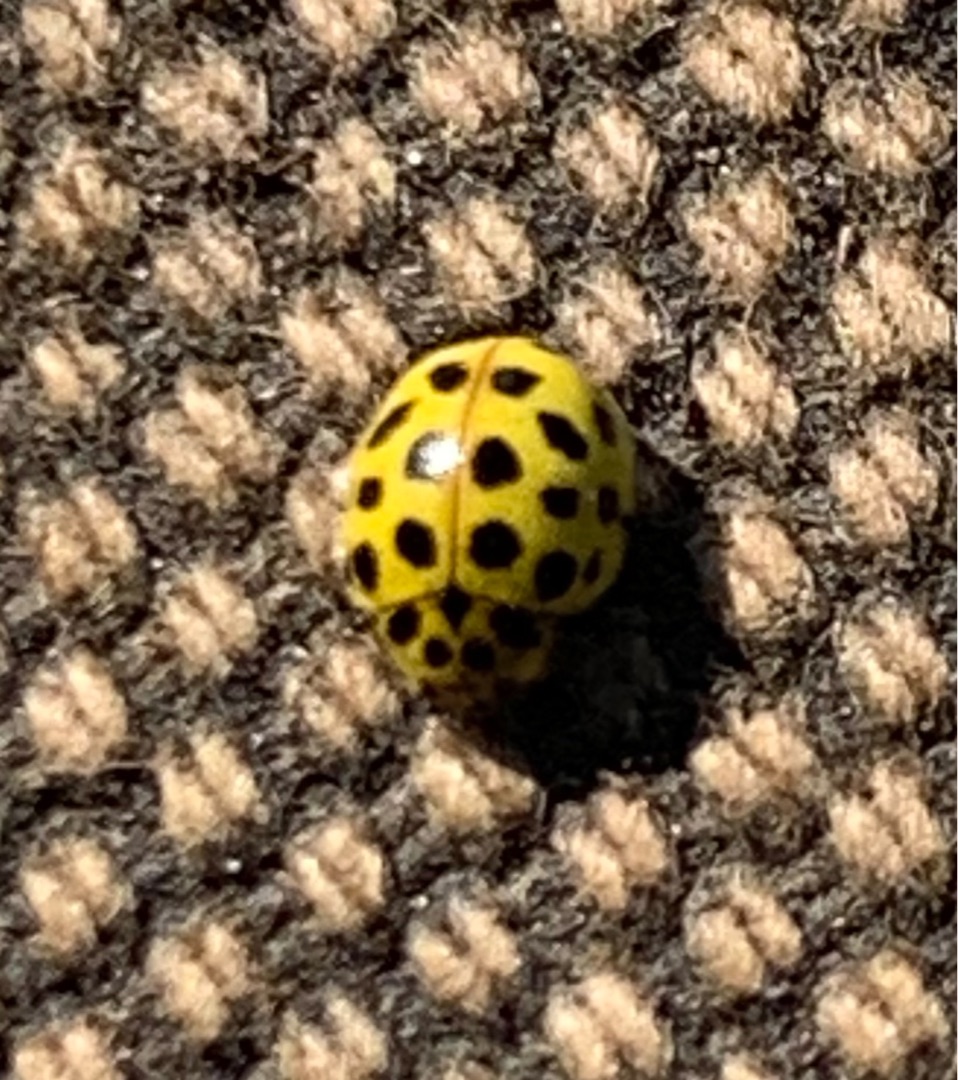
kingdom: Animalia
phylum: Arthropoda
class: Insecta
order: Coleoptera
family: Coccinellidae
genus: Psyllobora
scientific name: Psyllobora vigintiduopunctata
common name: Toogtyveplettet mariehøne
